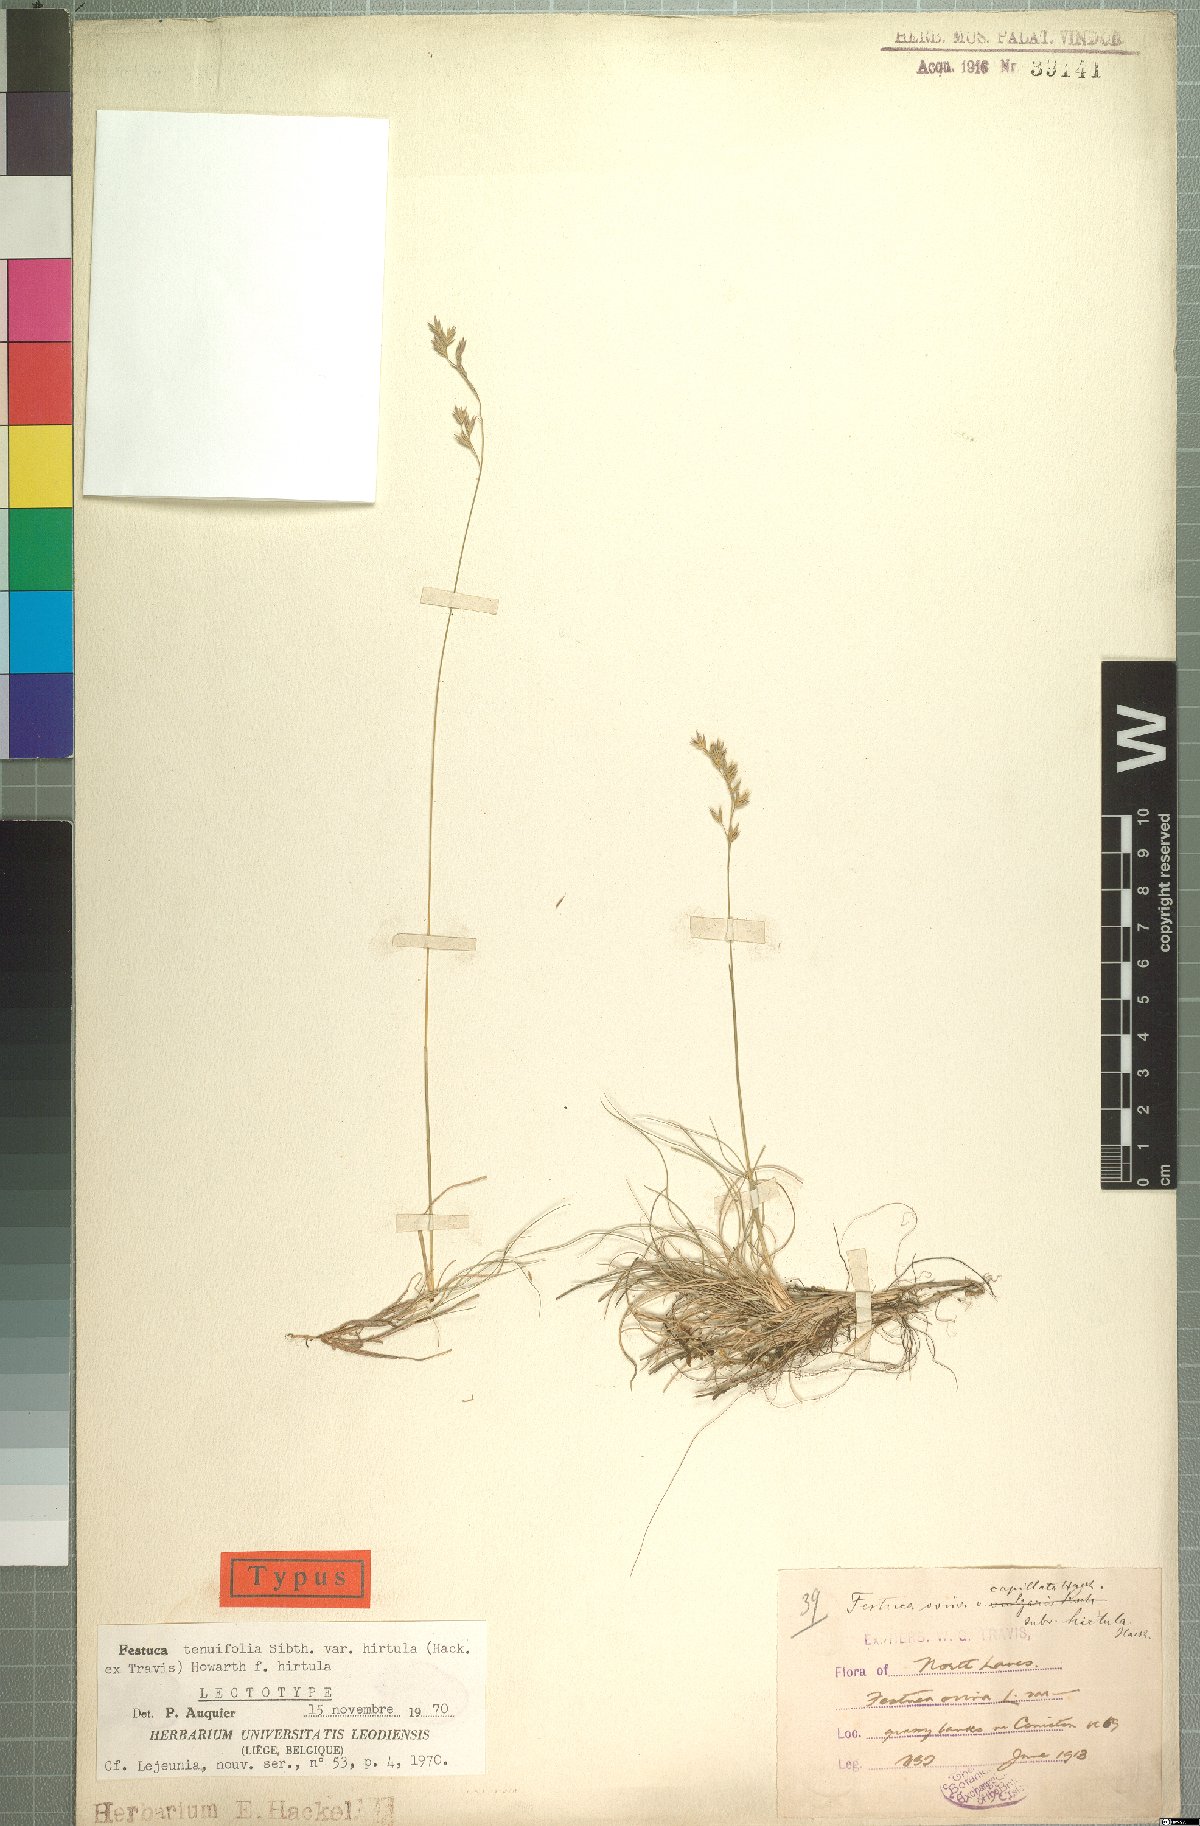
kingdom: Plantae
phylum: Tracheophyta
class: Liliopsida
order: Poales
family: Poaceae
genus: Festuca
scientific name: Festuca guestfalica
